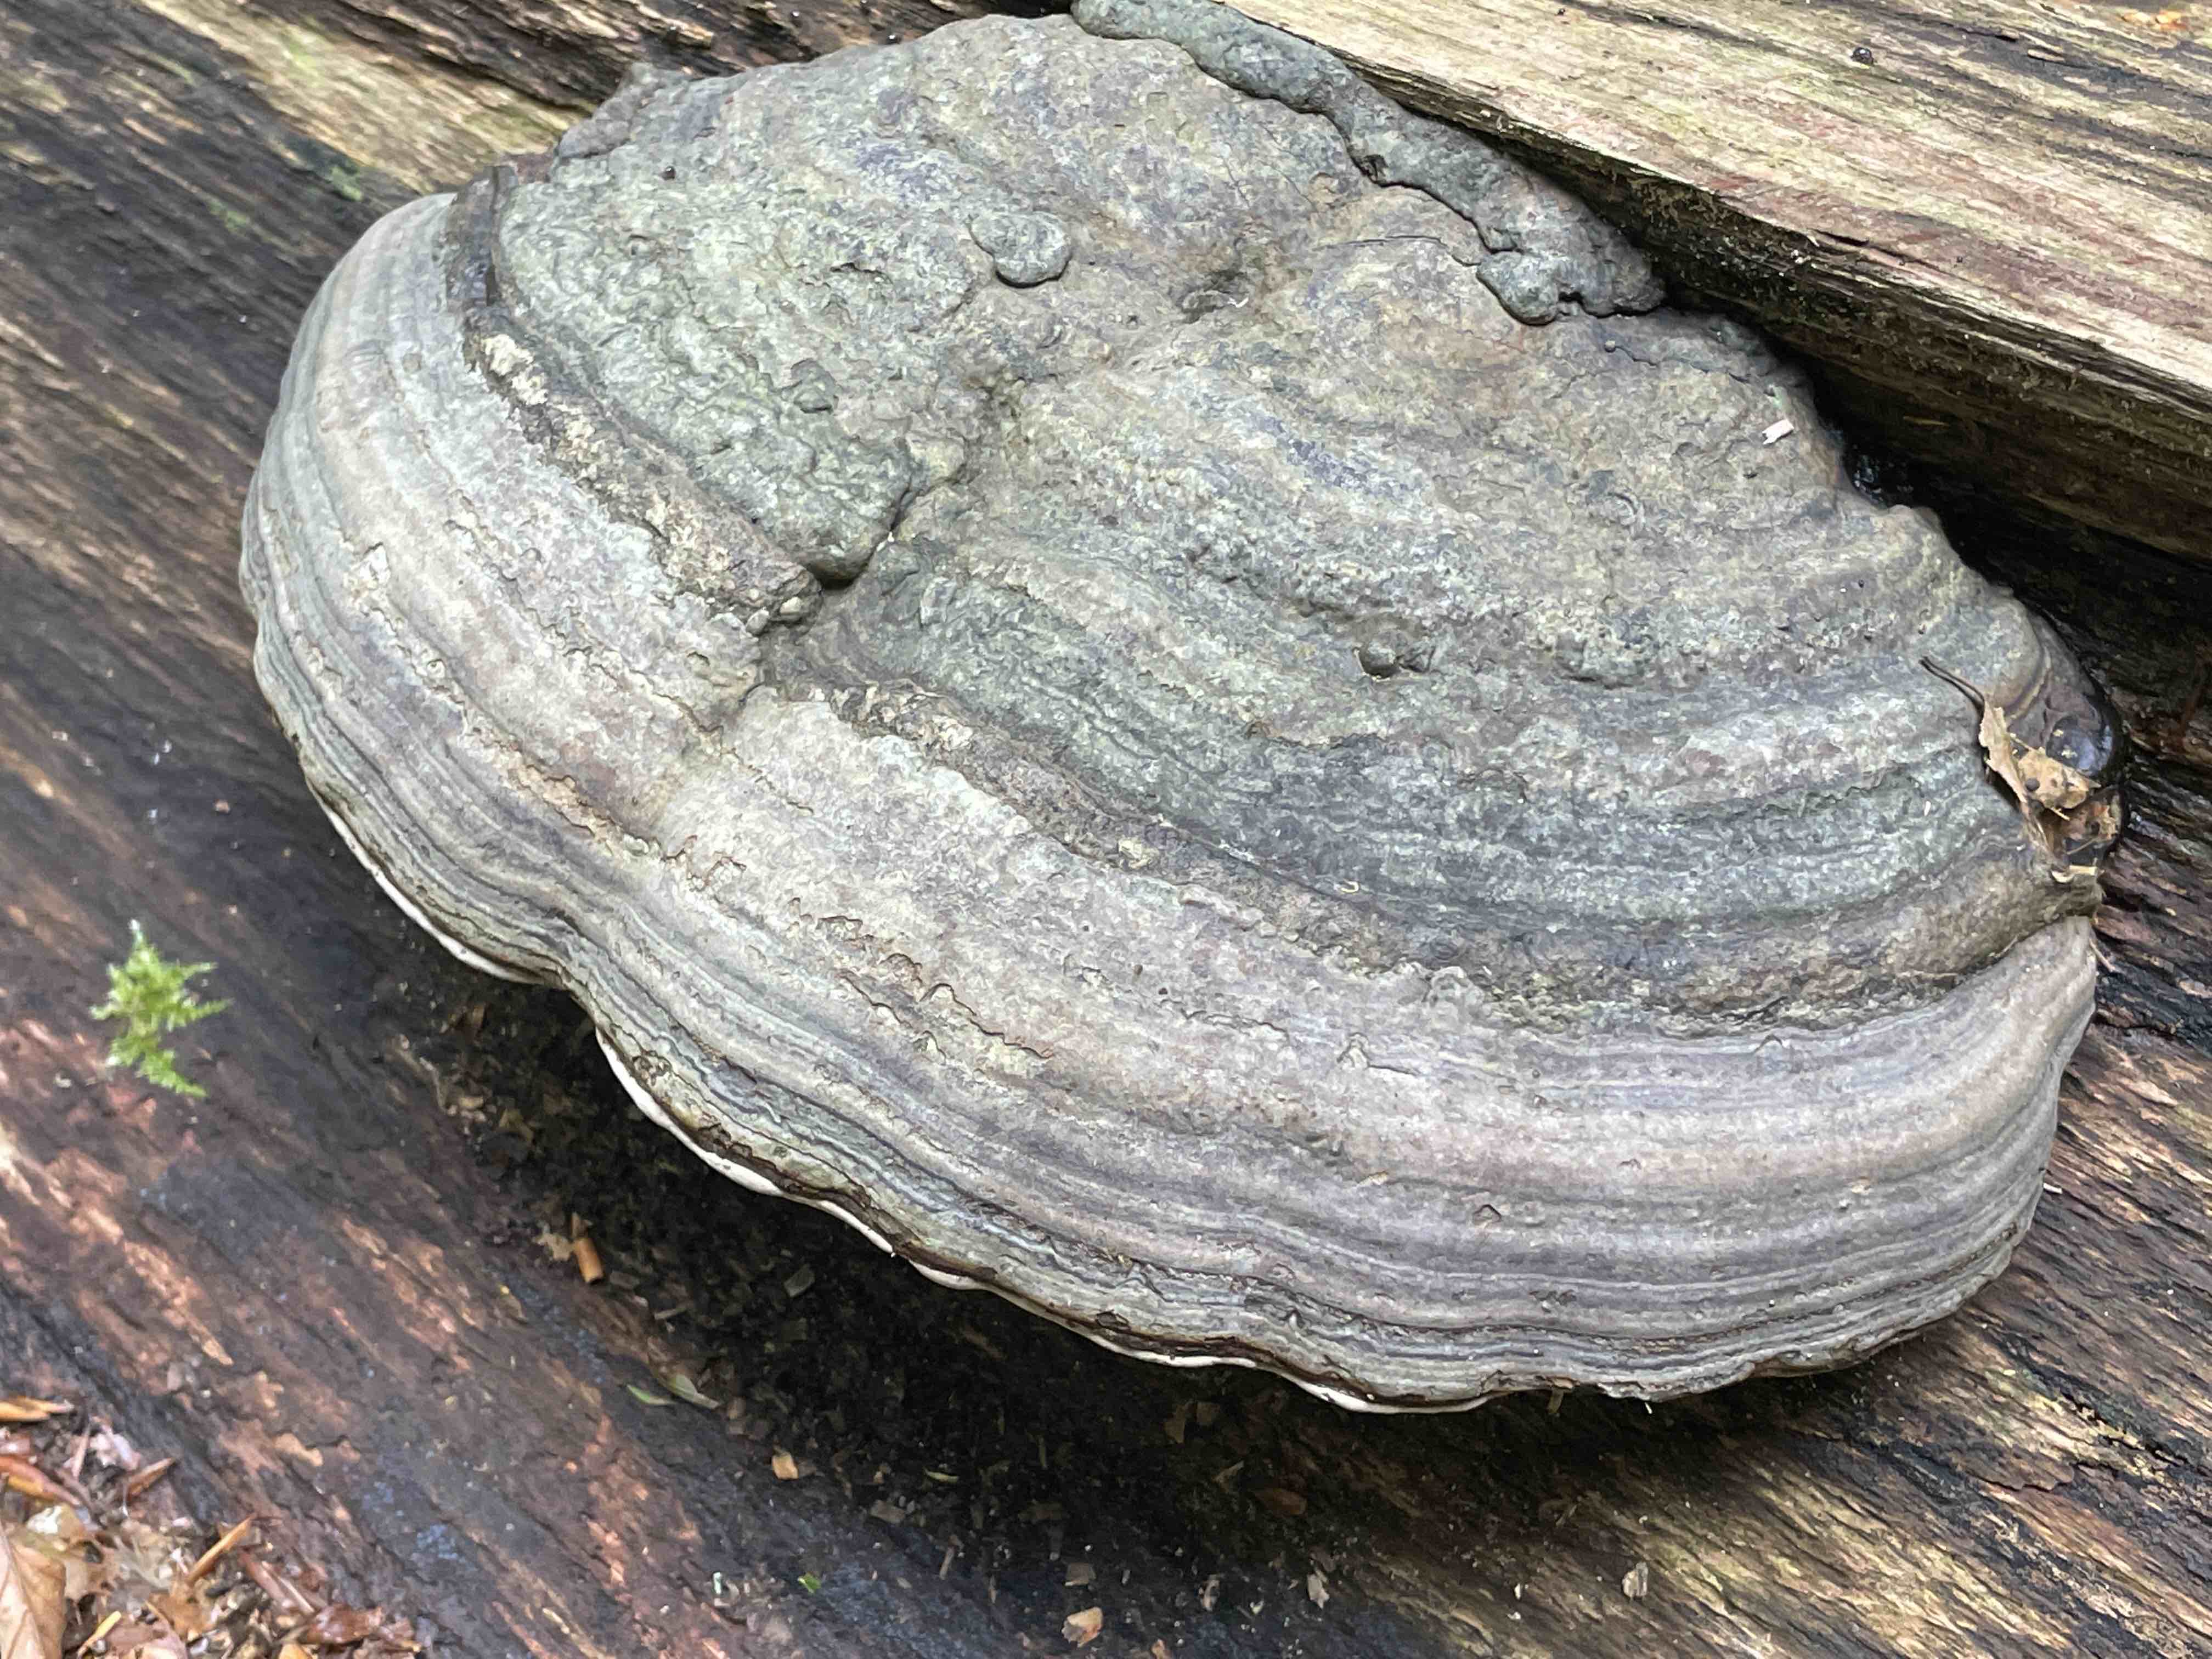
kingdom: Fungi
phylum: Basidiomycota
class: Agaricomycetes
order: Polyporales
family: Polyporaceae
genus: Fomes
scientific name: Fomes fomentarius
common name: tøndersvamp
